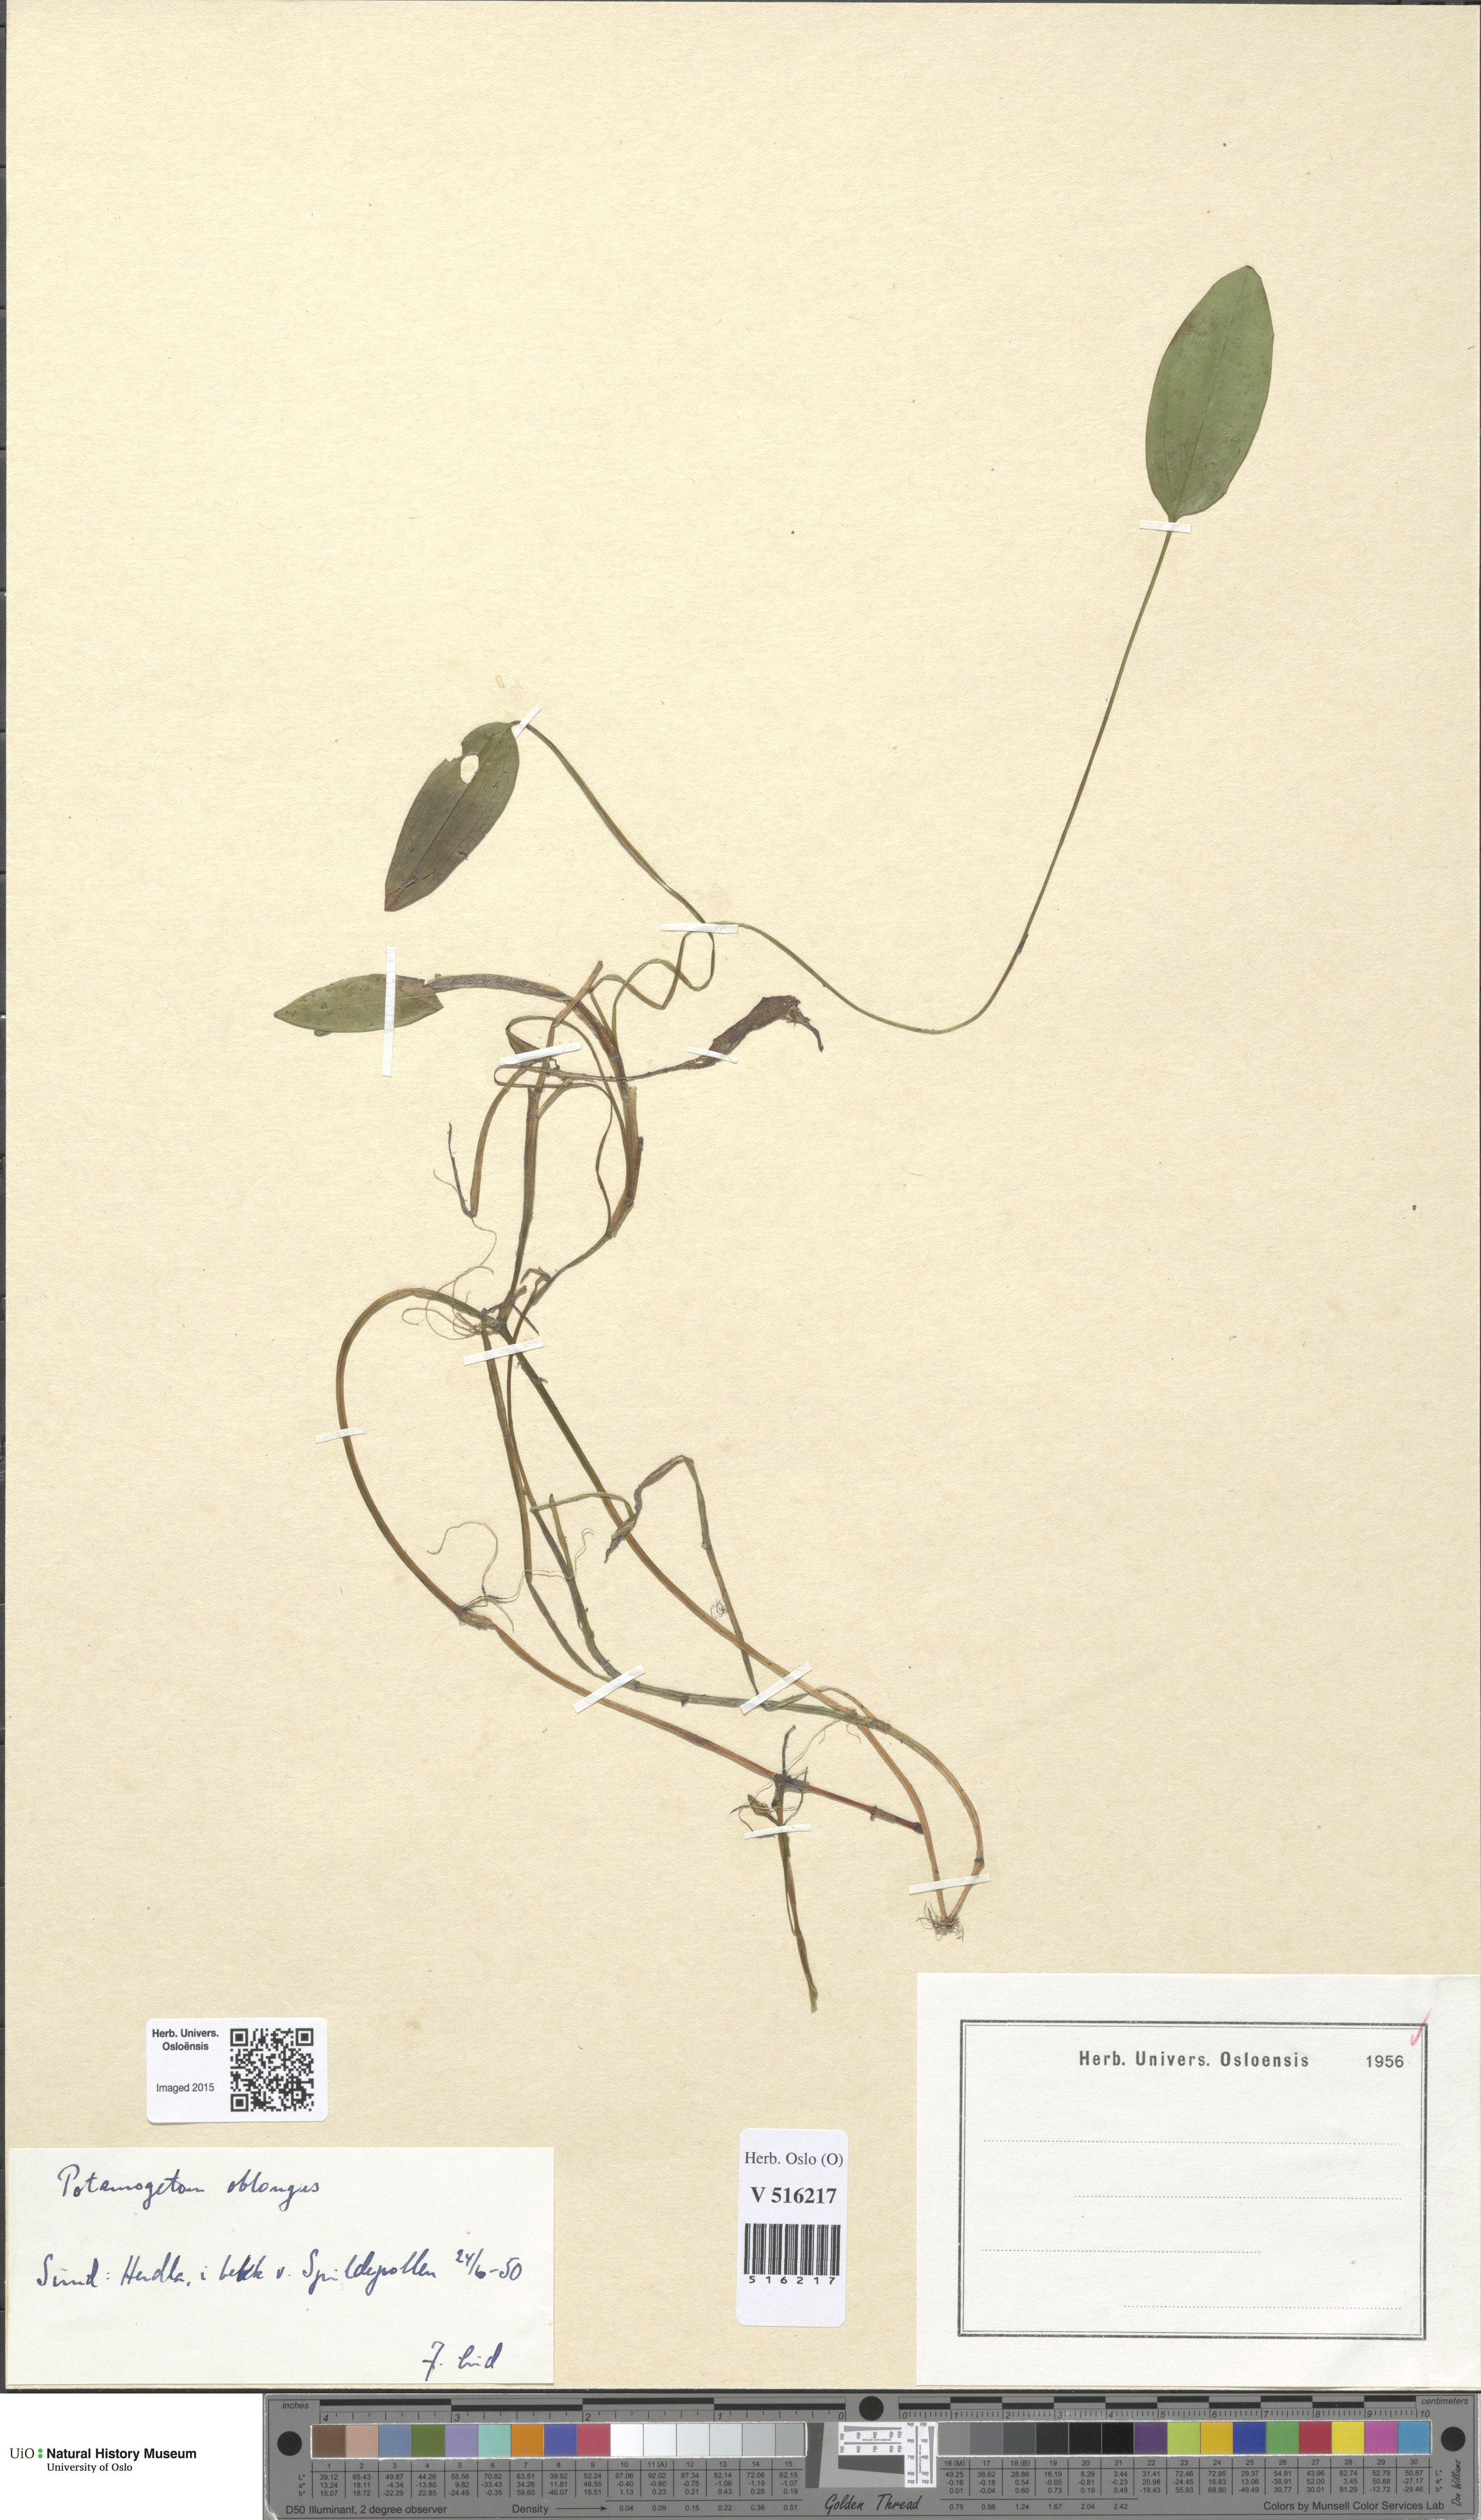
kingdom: Plantae
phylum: Tracheophyta
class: Liliopsida
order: Alismatales
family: Potamogetonaceae
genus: Potamogeton
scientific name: Potamogeton polygonifolius
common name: Bog pondweed
